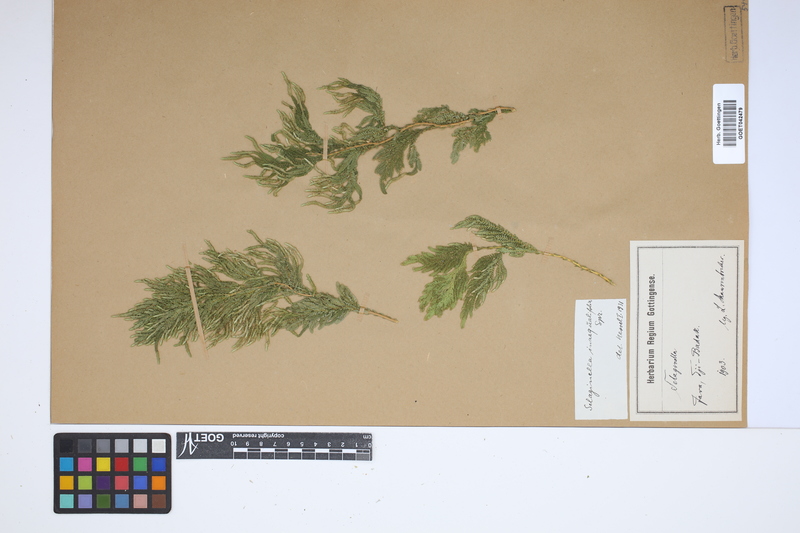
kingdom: Plantae
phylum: Tracheophyta
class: Lycopodiopsida
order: Selaginellales
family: Selaginellaceae
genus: Selaginella
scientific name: Selaginella inaequalifolia
